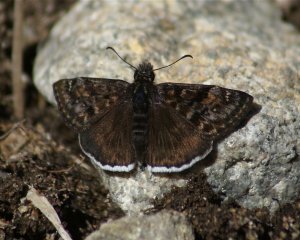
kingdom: Animalia
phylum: Arthropoda
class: Insecta
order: Lepidoptera
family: Hesperiidae
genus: Erynnis
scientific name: Erynnis tristis
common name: Mournful Duskywing
